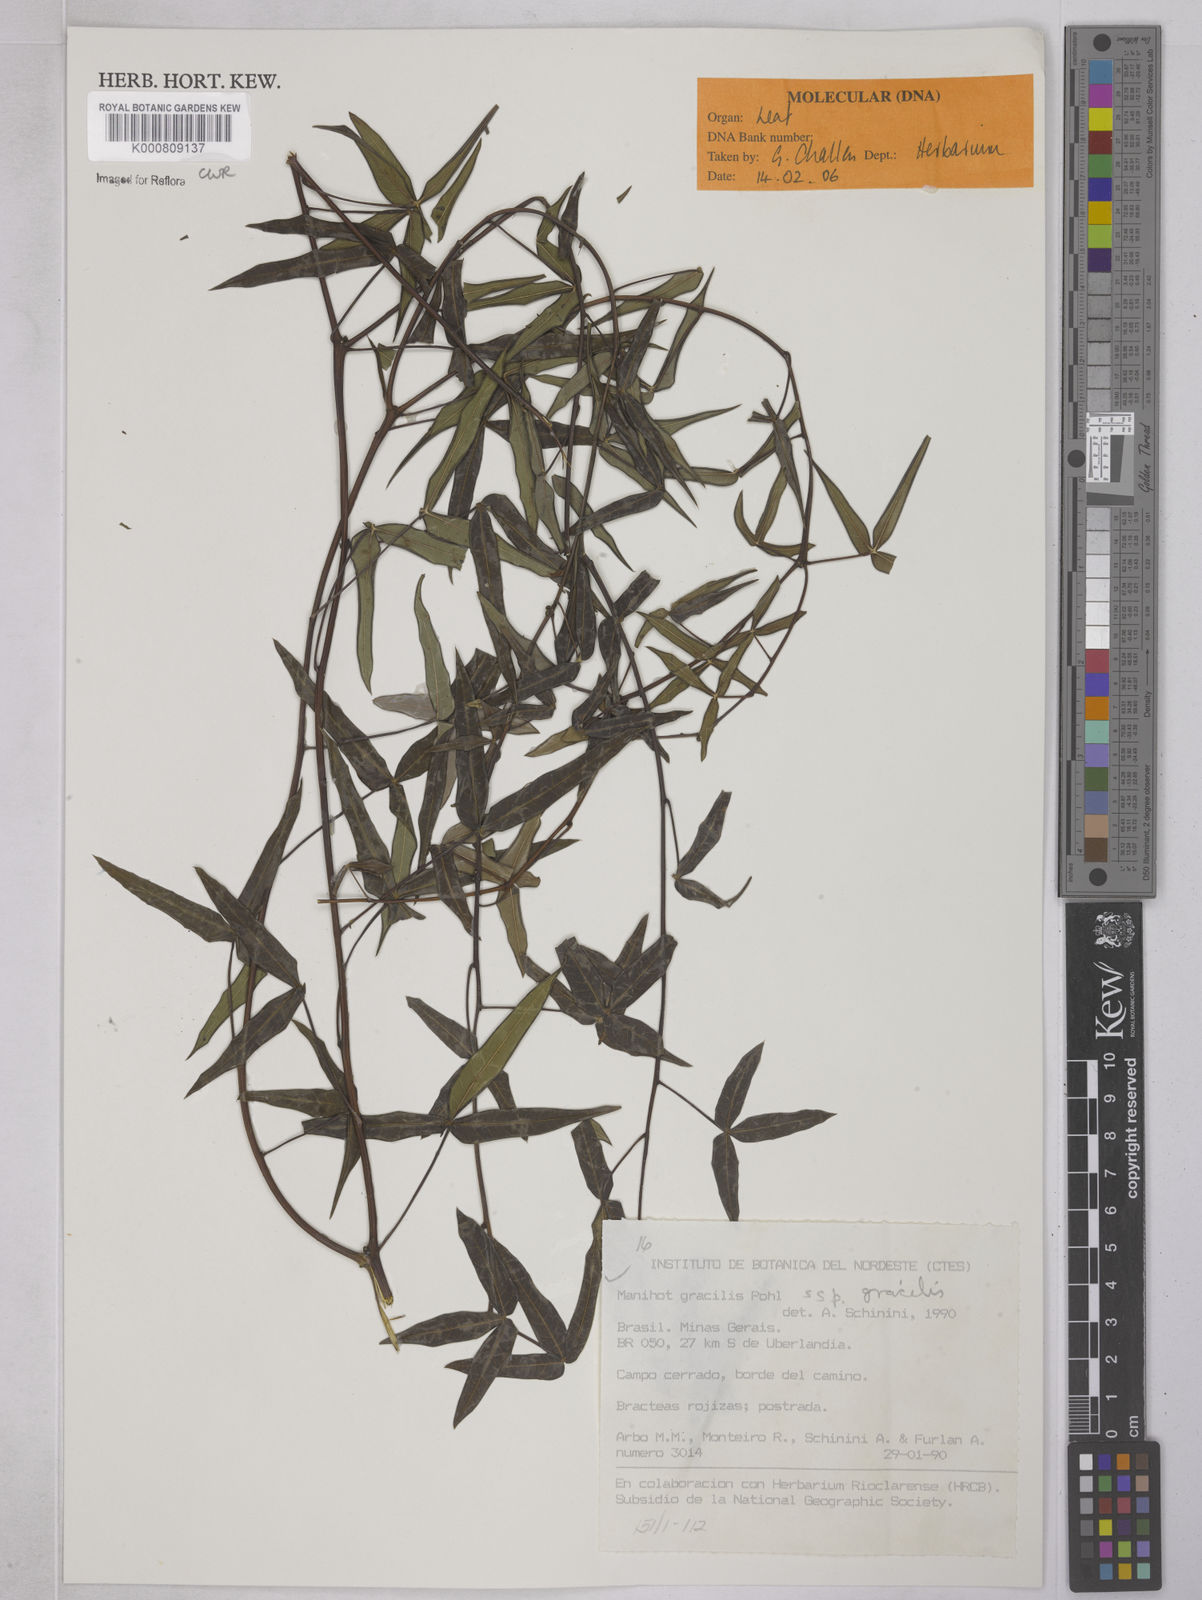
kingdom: Plantae
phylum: Tracheophyta
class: Magnoliopsida
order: Malpighiales
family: Euphorbiaceae
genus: Manihot
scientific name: Manihot gracilis
